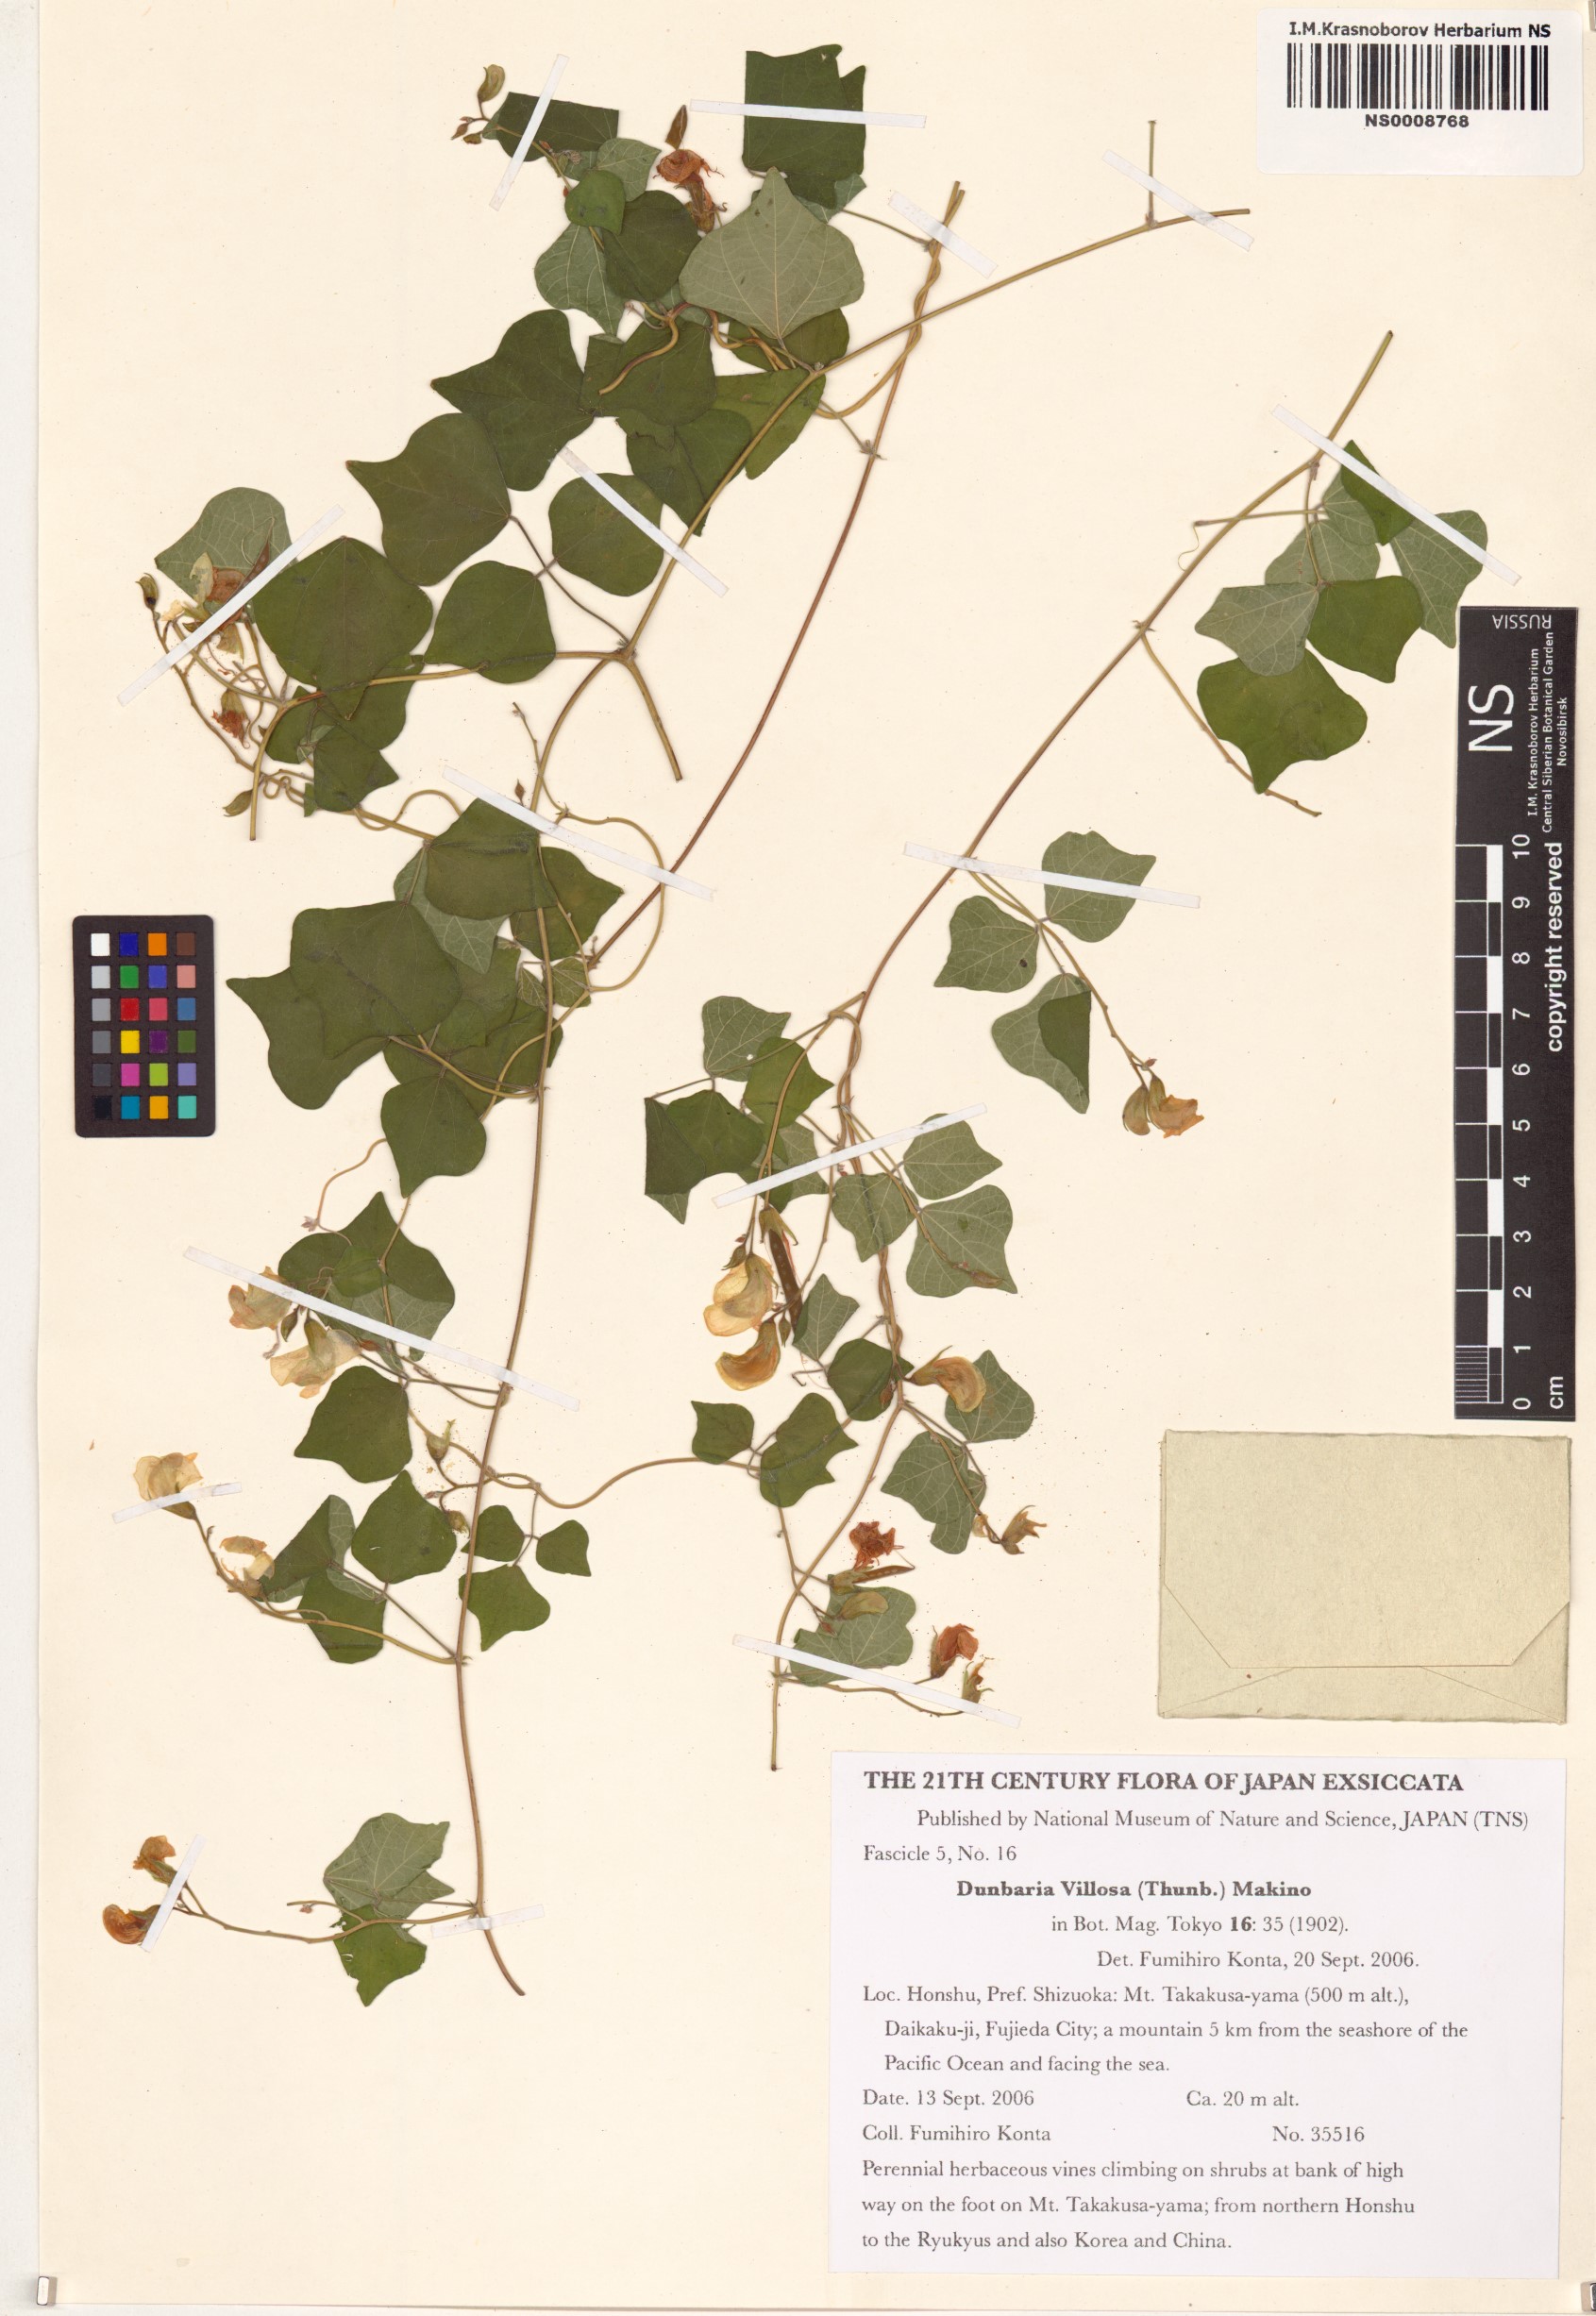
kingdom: Plantae
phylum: Tracheophyta
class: Magnoliopsida
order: Fabales
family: Fabaceae
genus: Dunbaria
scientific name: Dunbaria villosa
